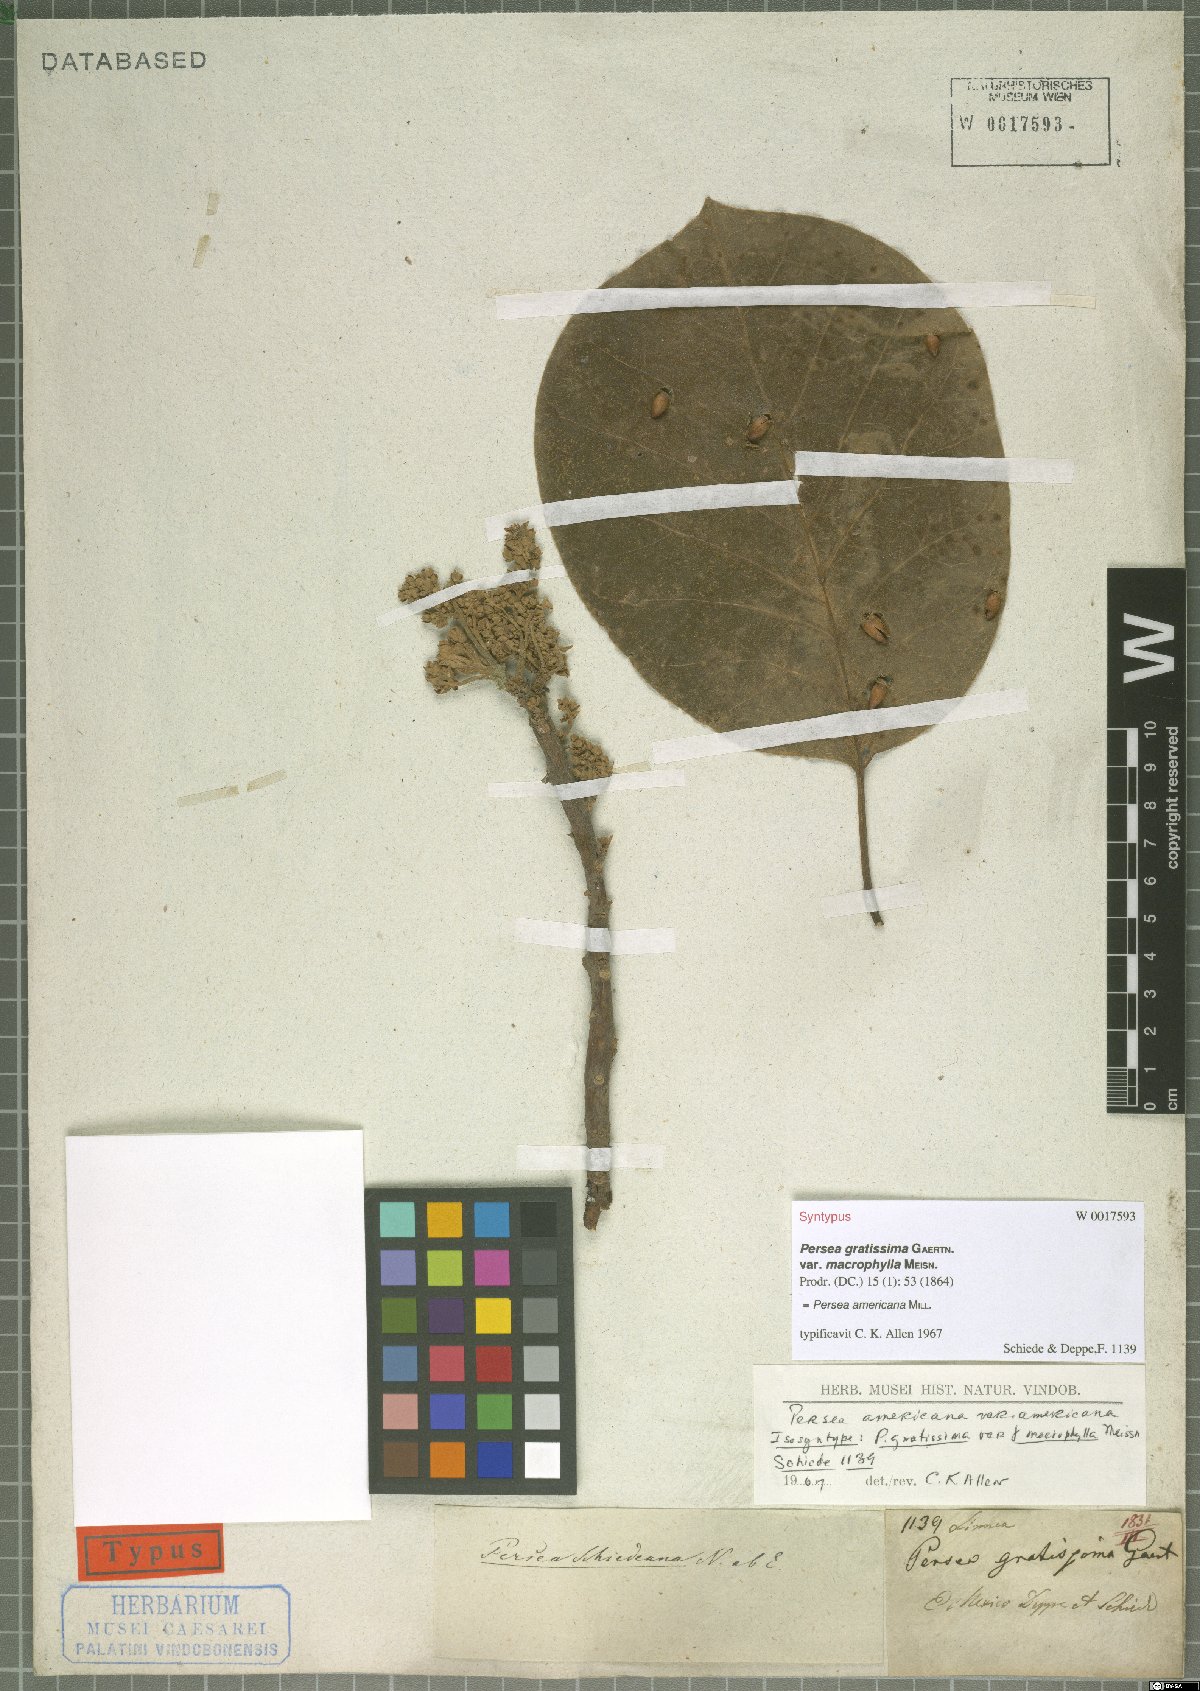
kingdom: Plantae
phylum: Tracheophyta
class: Magnoliopsida
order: Laurales
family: Lauraceae
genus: Persea
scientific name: Persea americana
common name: Avocado
